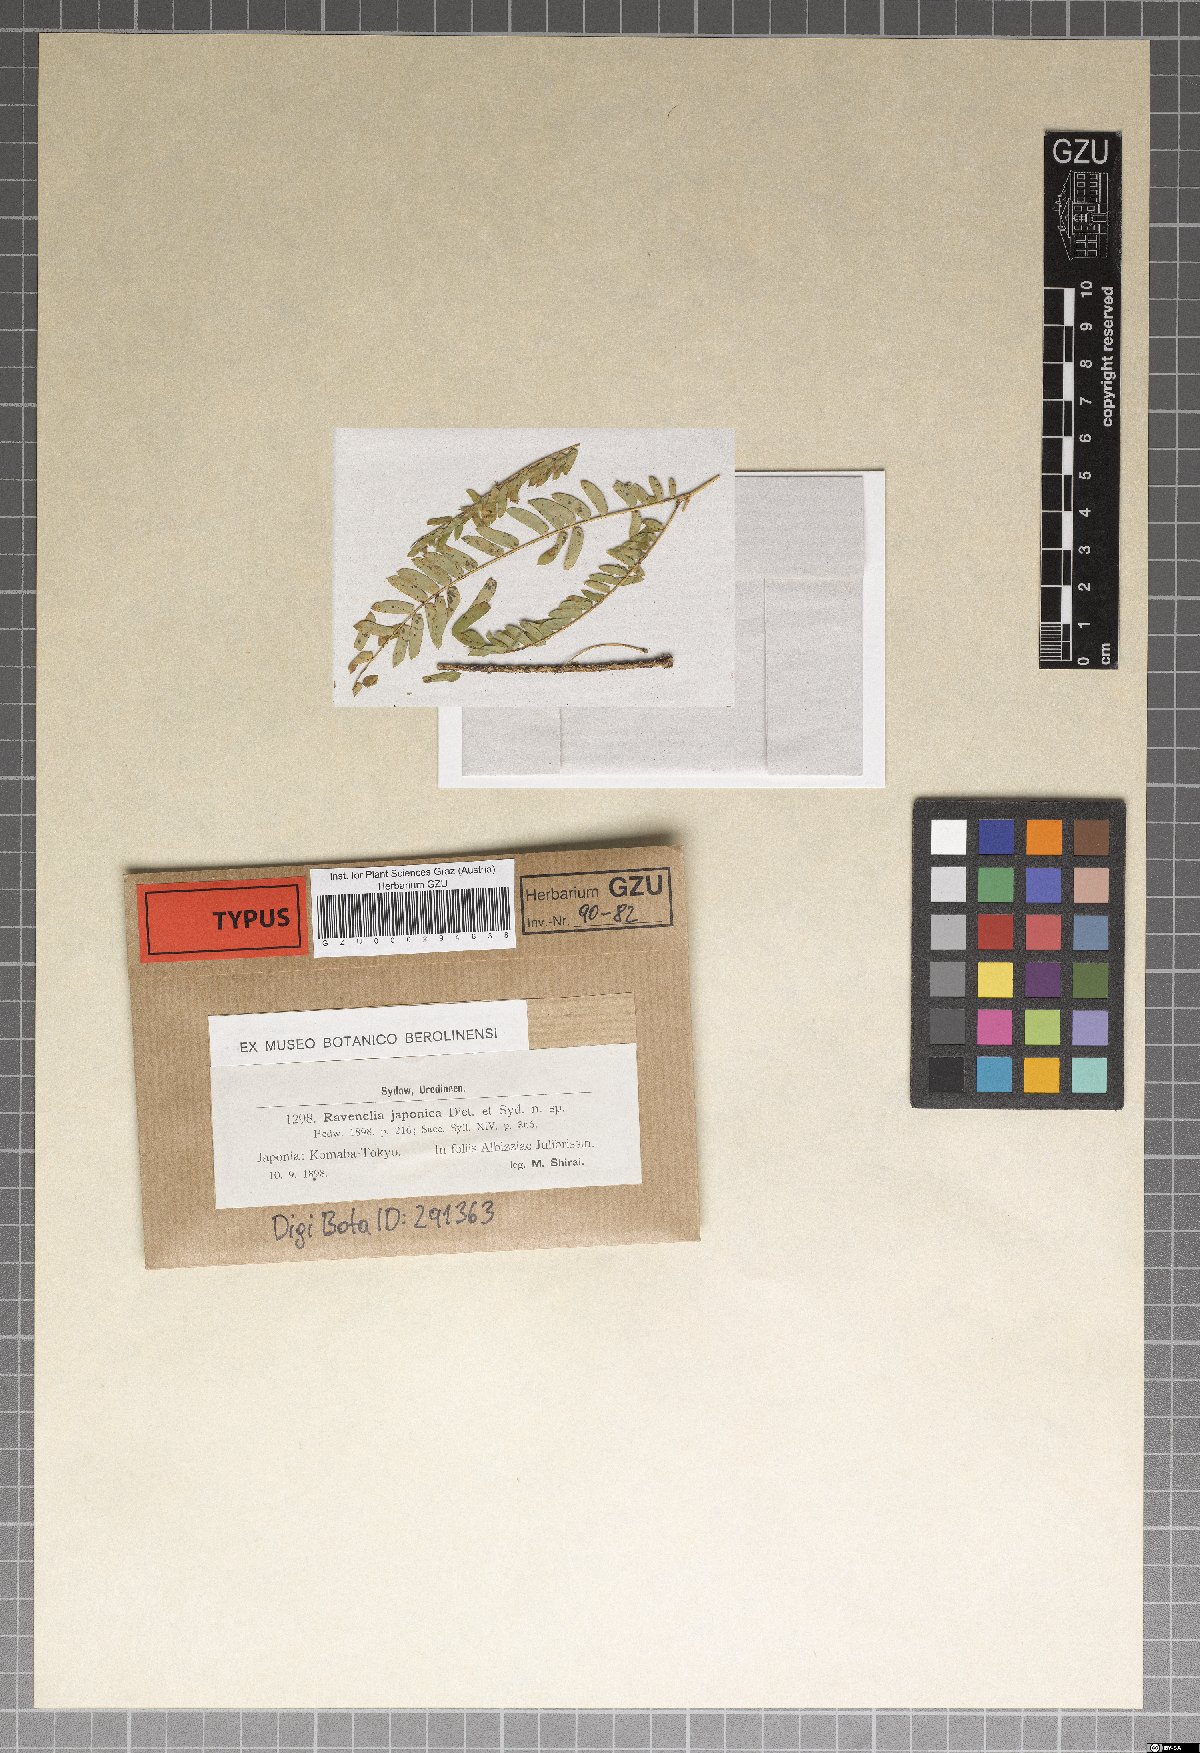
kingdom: Fungi
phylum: Basidiomycota
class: Pucciniomycetes
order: Pucciniales
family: Raveneliaceae
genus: Ravenelia
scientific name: Ravenelia japonica
